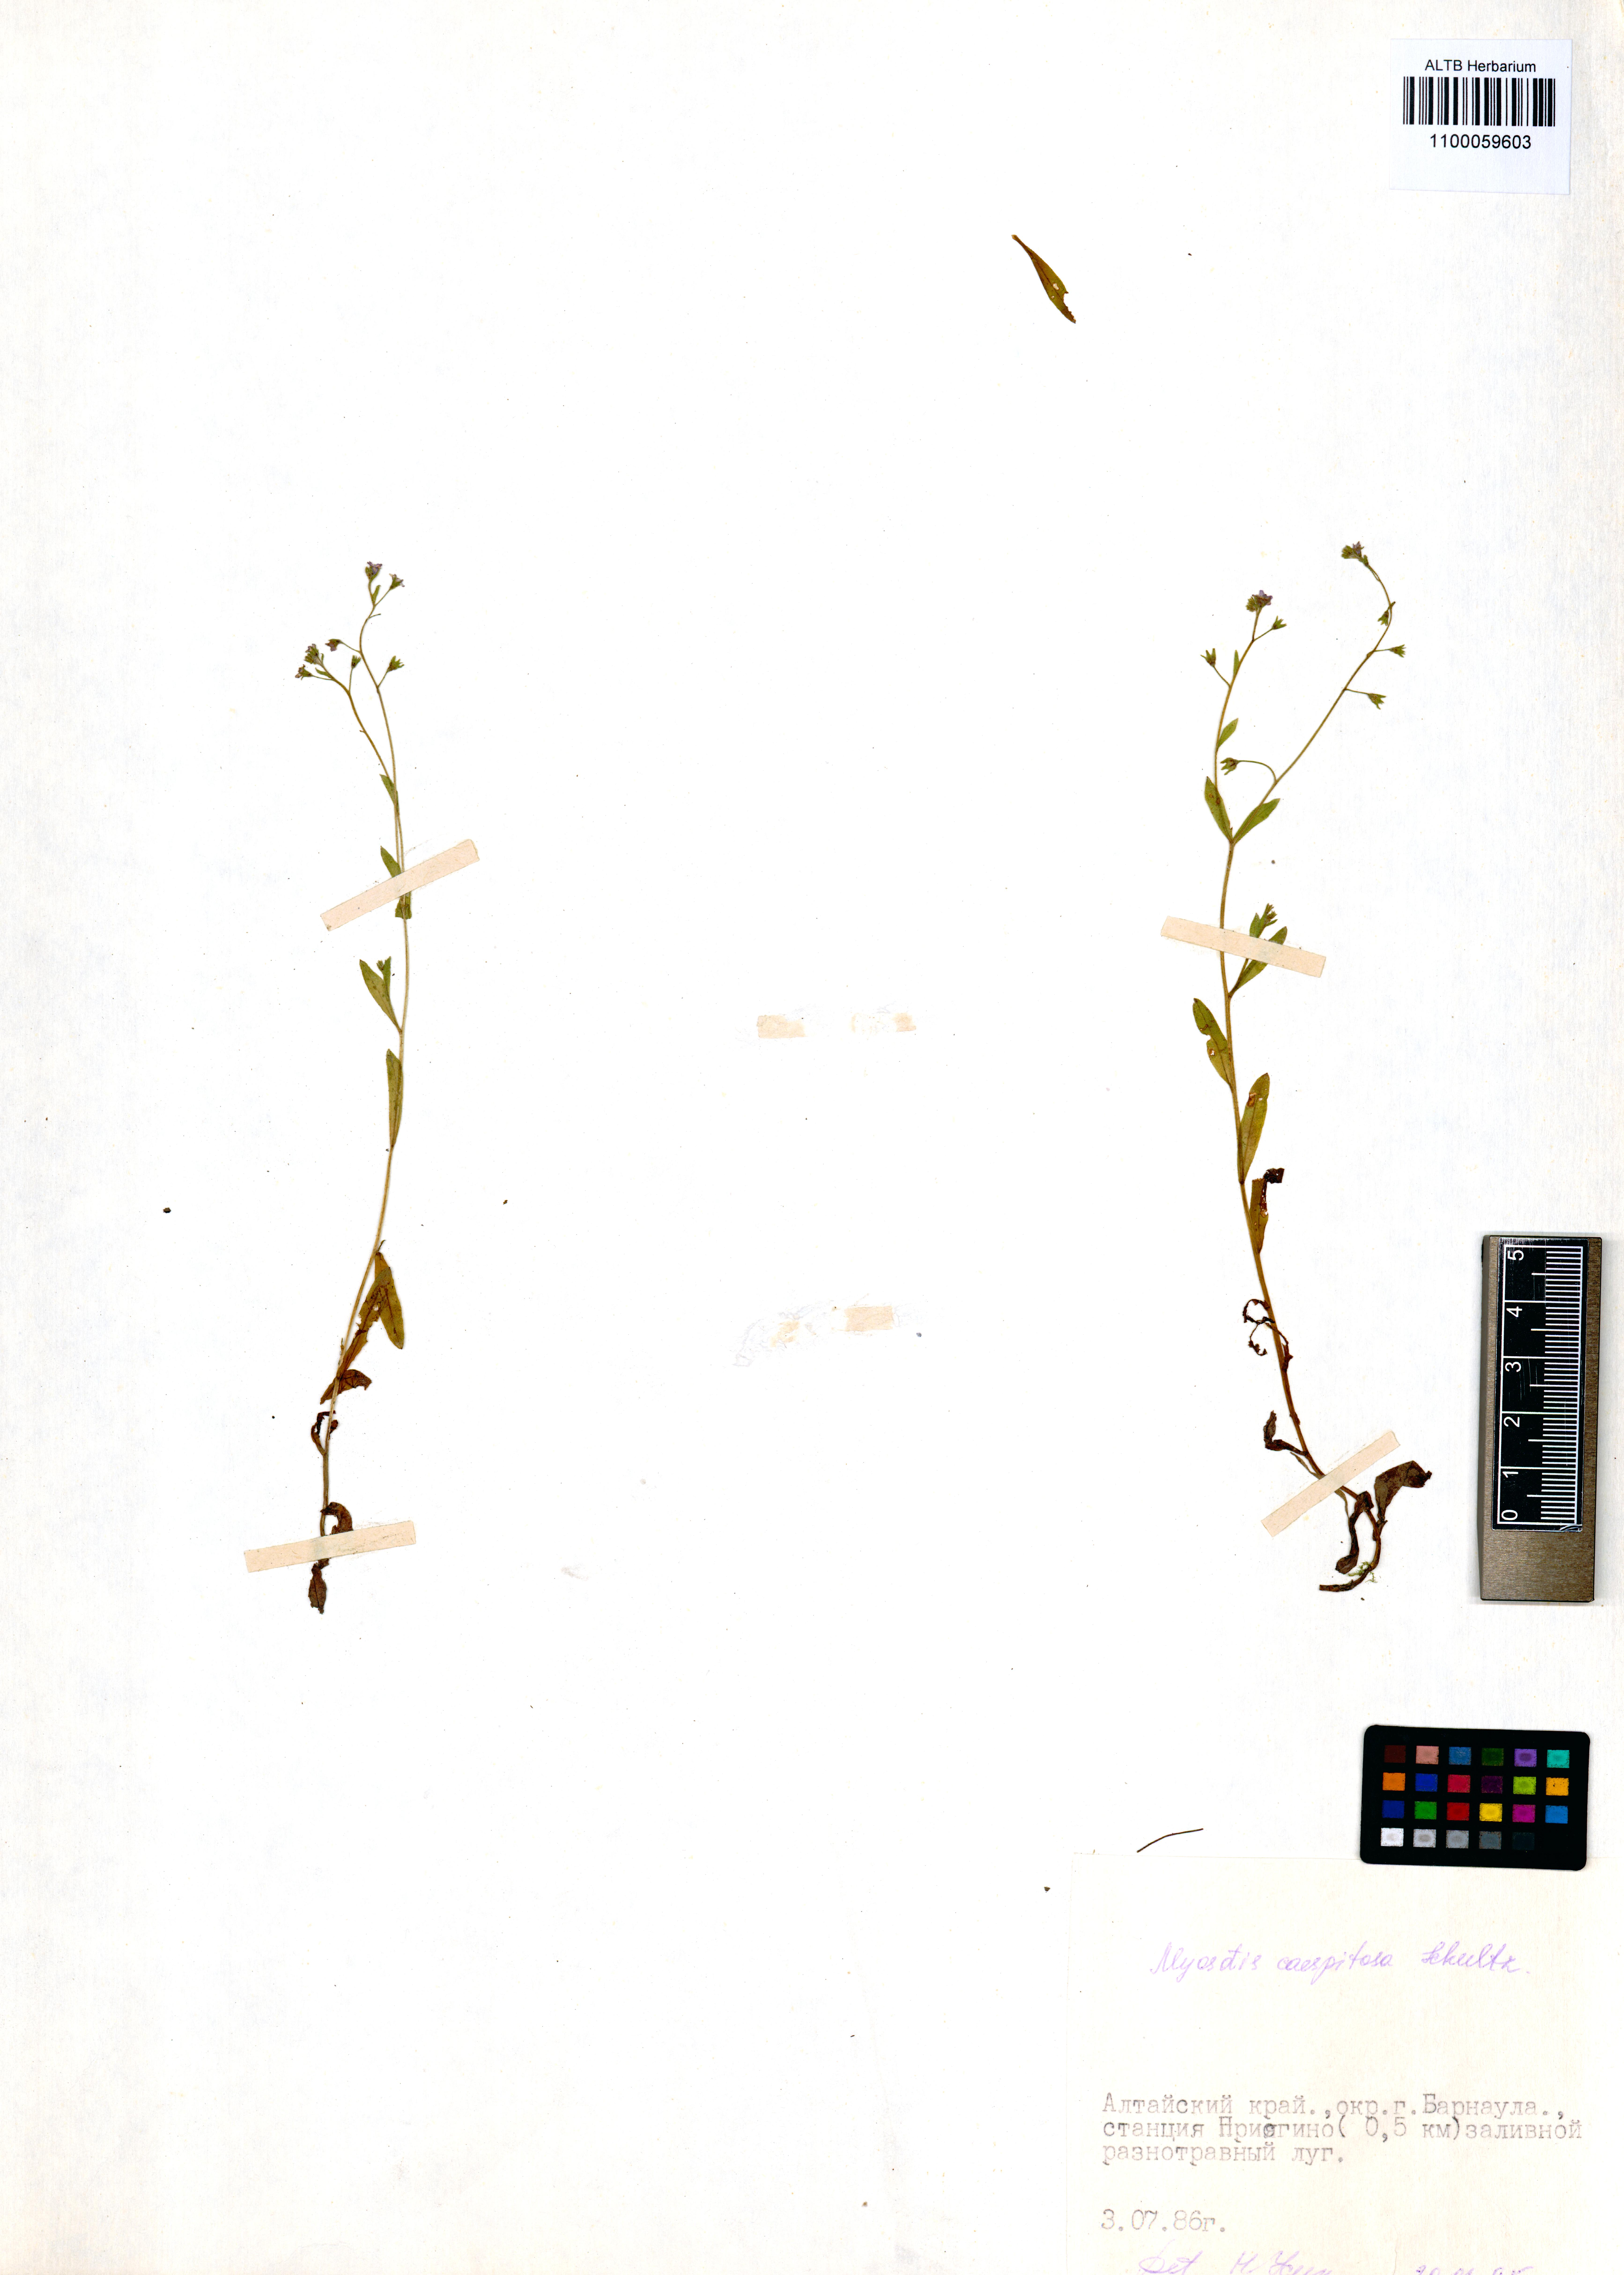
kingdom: Plantae
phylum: Tracheophyta
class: Magnoliopsida
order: Boraginales
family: Boraginaceae
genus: Myosotis
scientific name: Myosotis laxa
